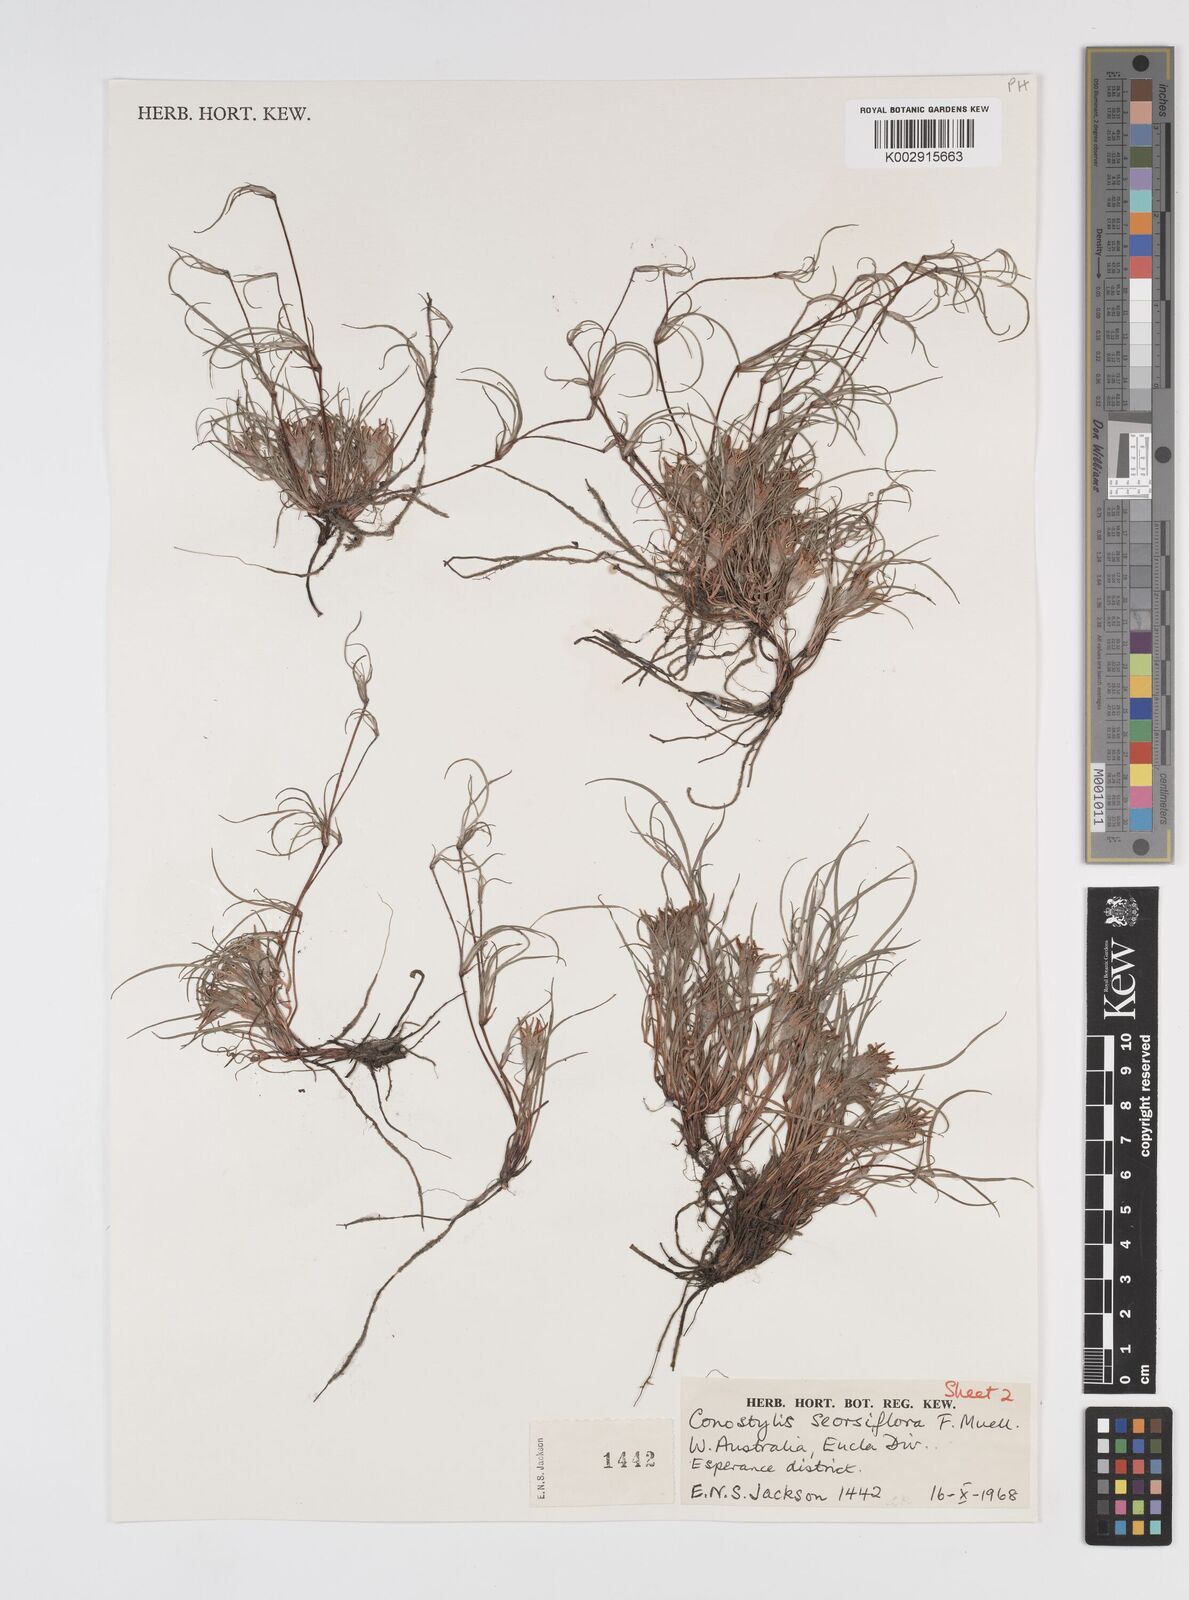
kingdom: Plantae
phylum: Tracheophyta
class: Liliopsida
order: Commelinales
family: Haemodoraceae
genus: Conostylis
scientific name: Conostylis seorsiflora
